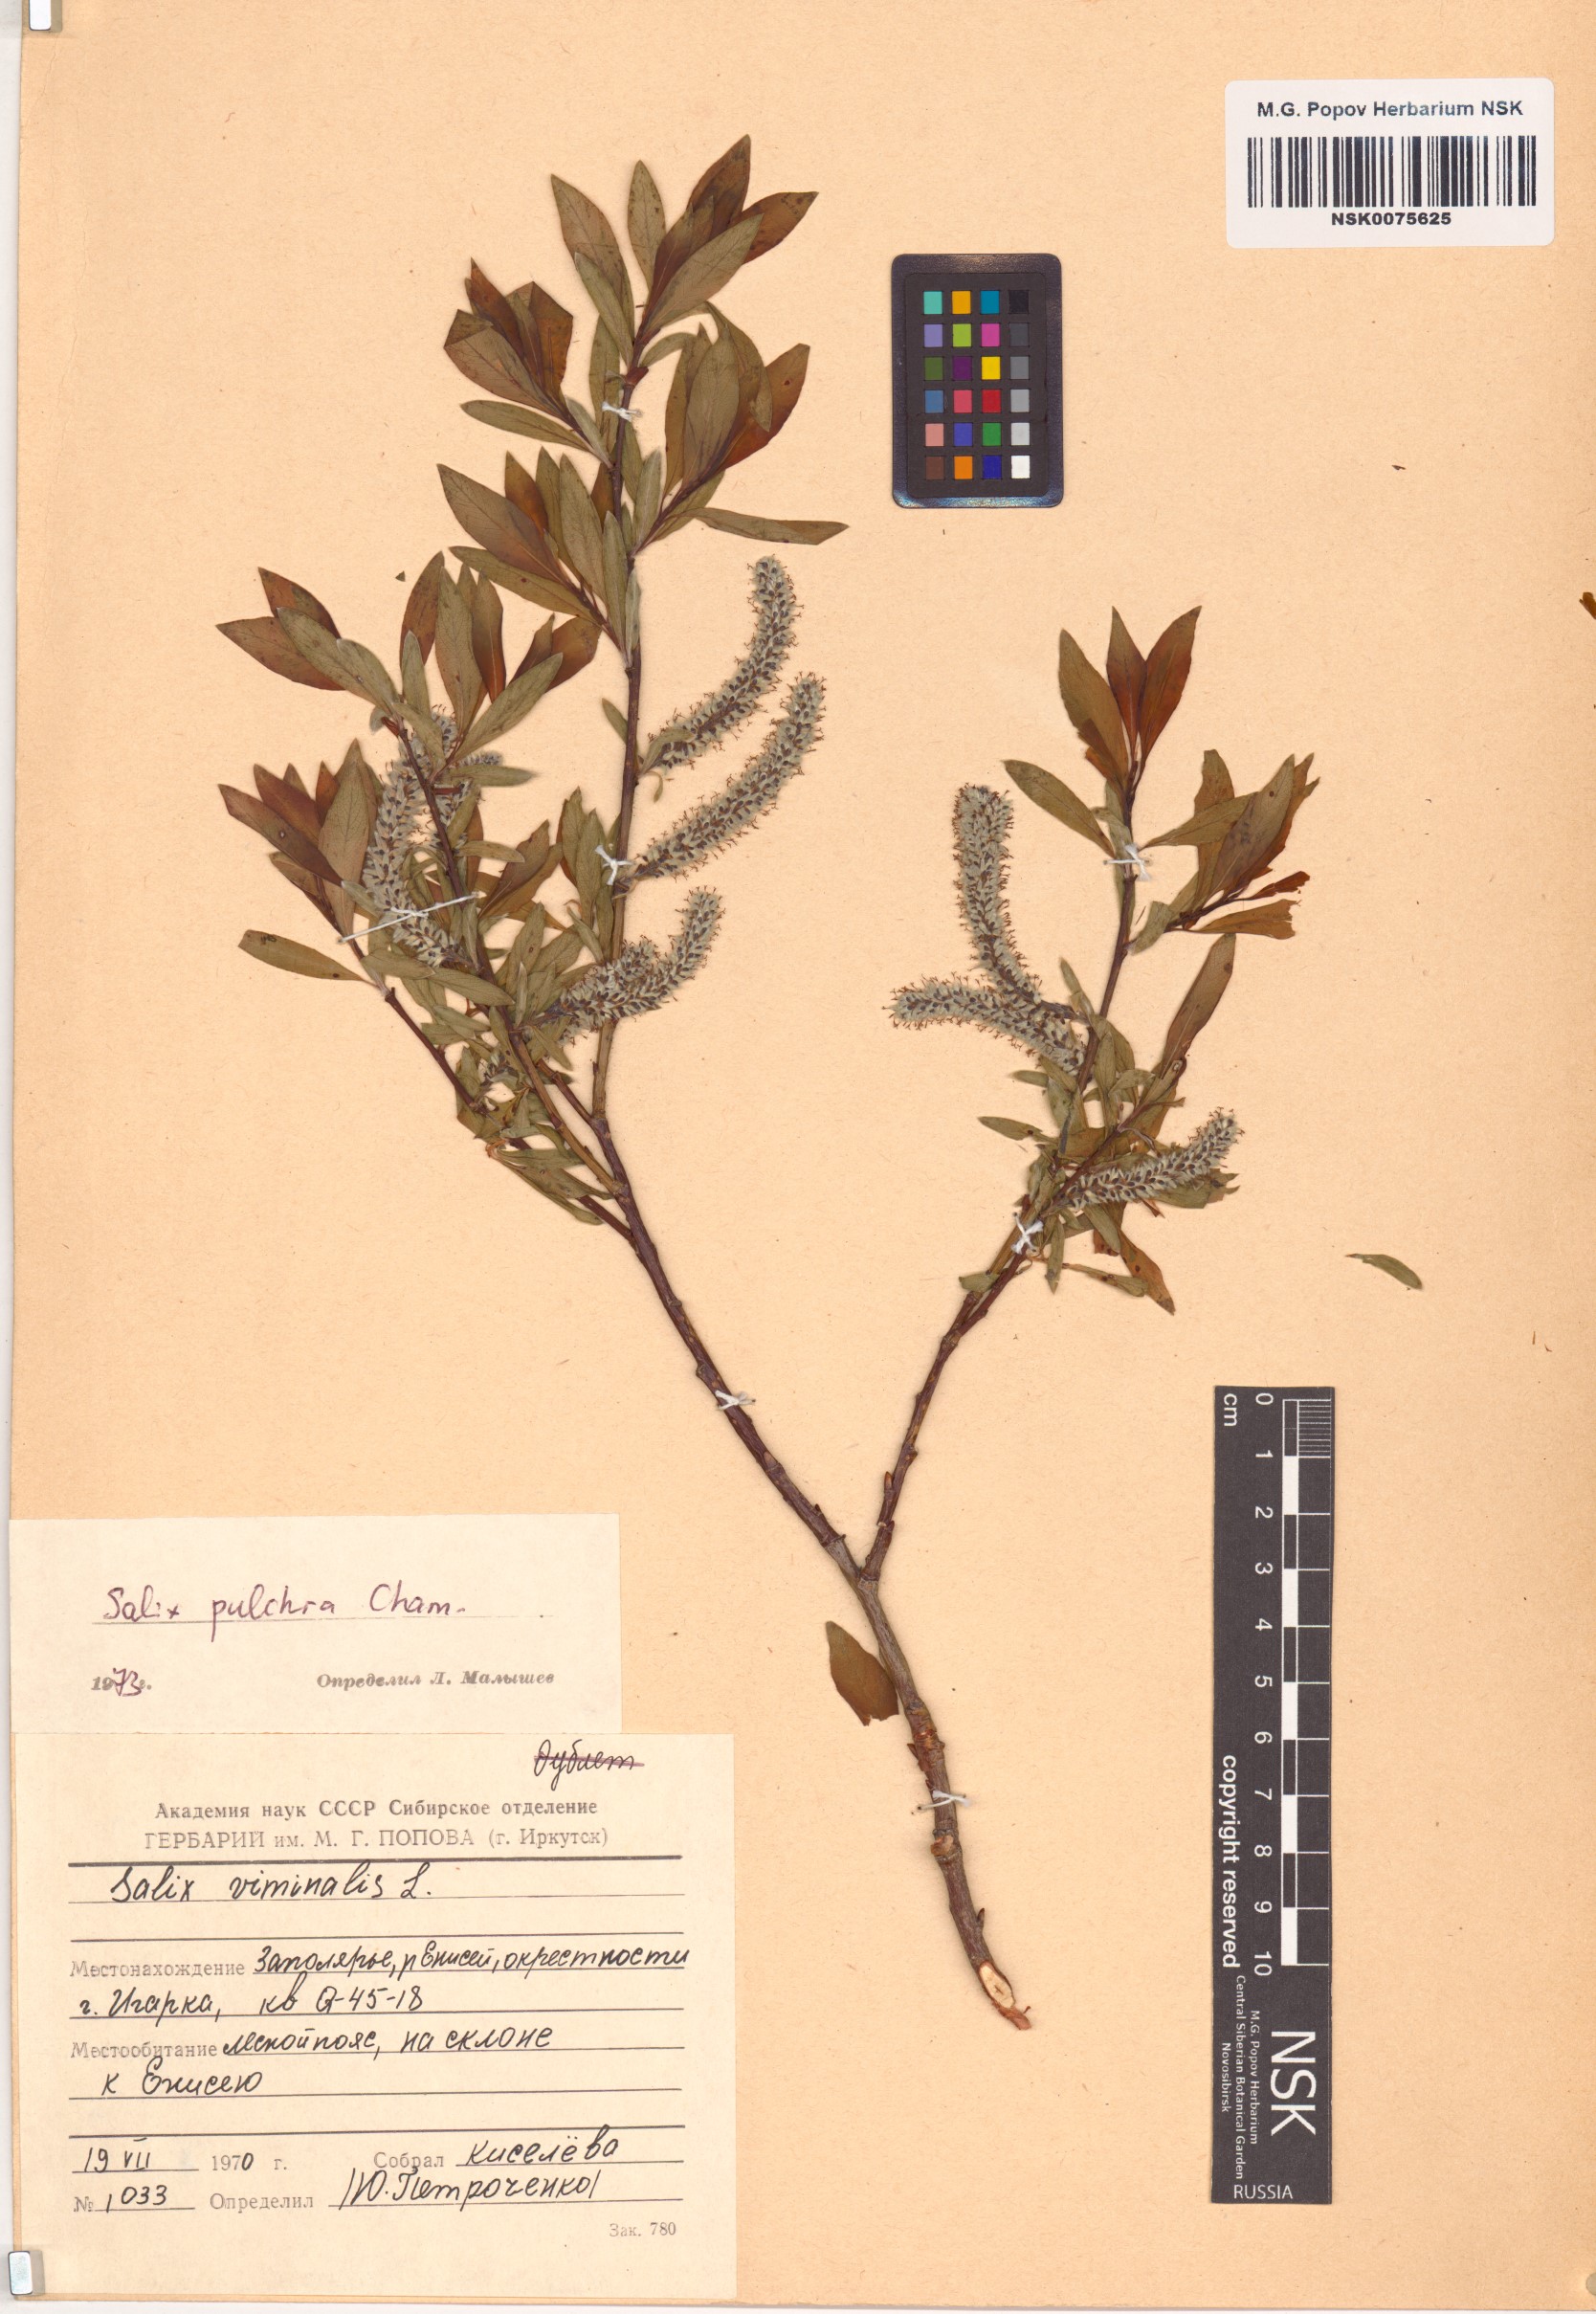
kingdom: Plantae
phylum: Tracheophyta
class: Magnoliopsida
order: Malpighiales
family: Salicaceae
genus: Salix
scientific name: Salix pulchra
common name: Diamond-leaved willow
